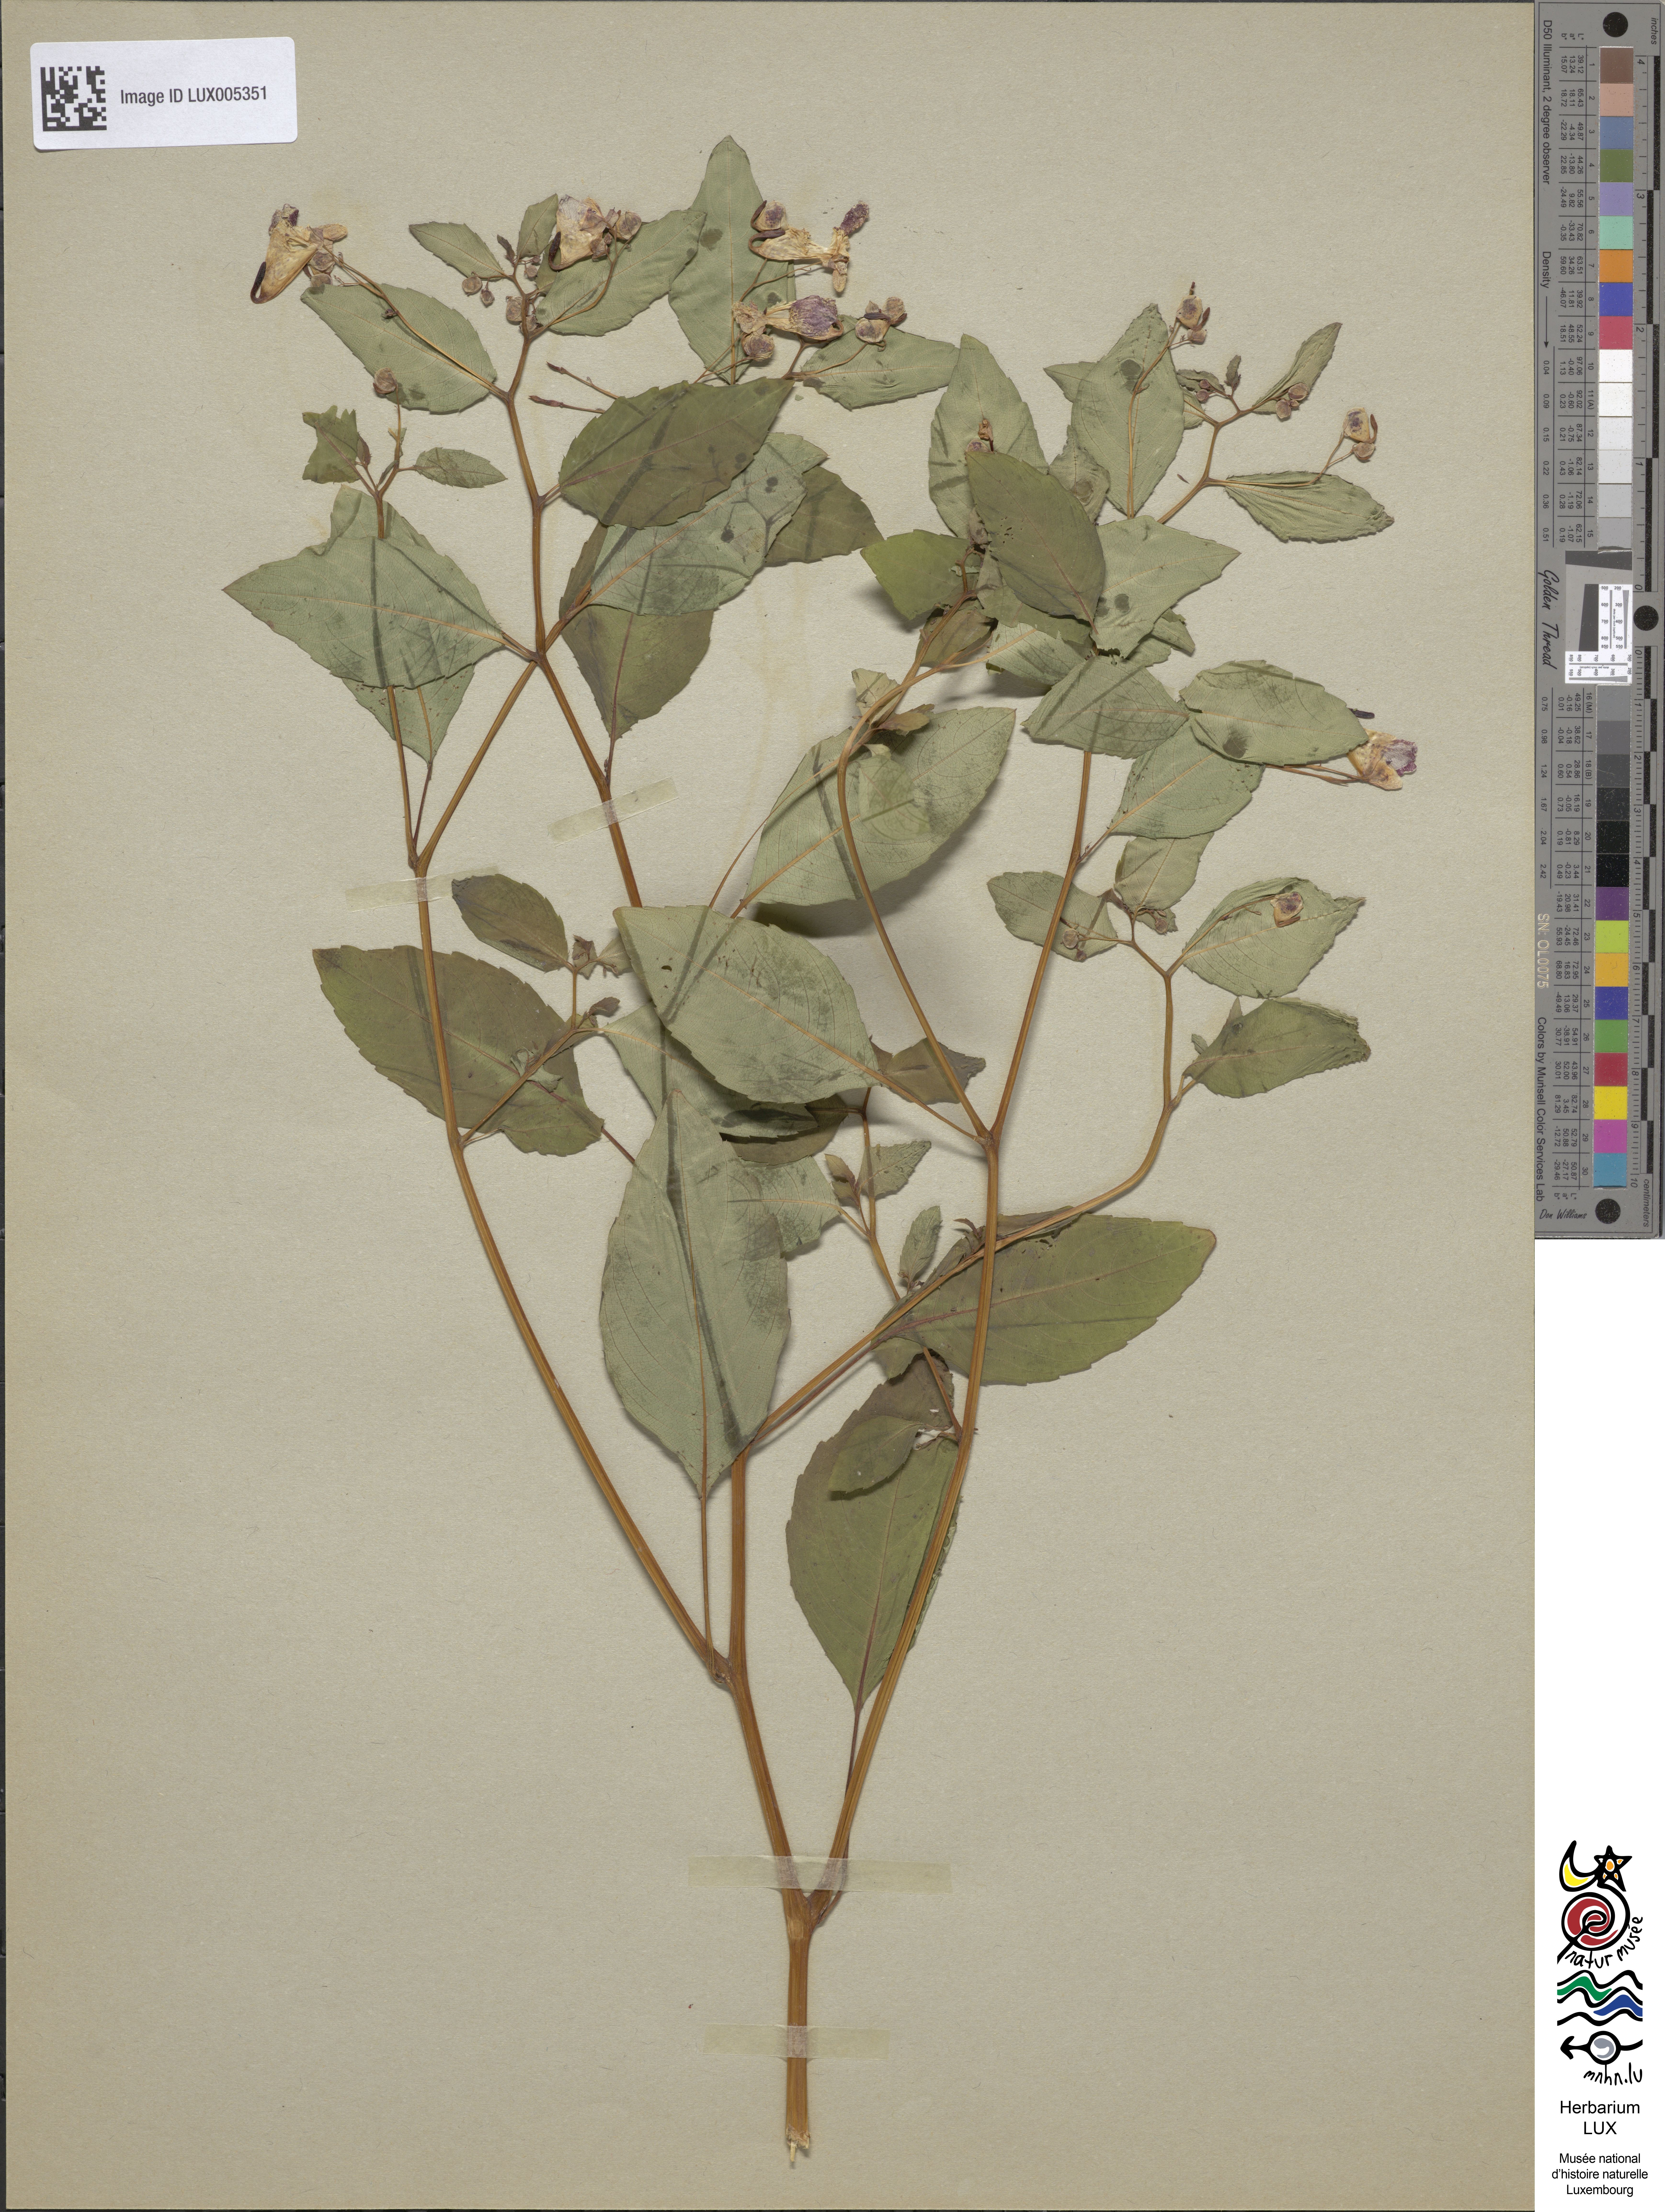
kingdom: Plantae
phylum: Tracheophyta
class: Magnoliopsida
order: Ericales
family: Balsaminaceae
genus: Impatiens
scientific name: Impatiens capensis
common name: Orange balsam
